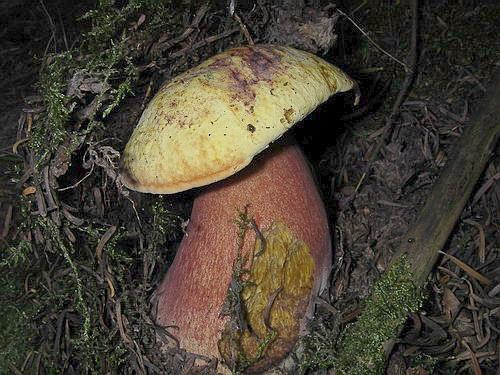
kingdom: Fungi
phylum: Basidiomycota
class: Agaricomycetes
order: Boletales
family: Boletaceae
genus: Neoboletus
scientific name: Neoboletus
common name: indigorørhat
